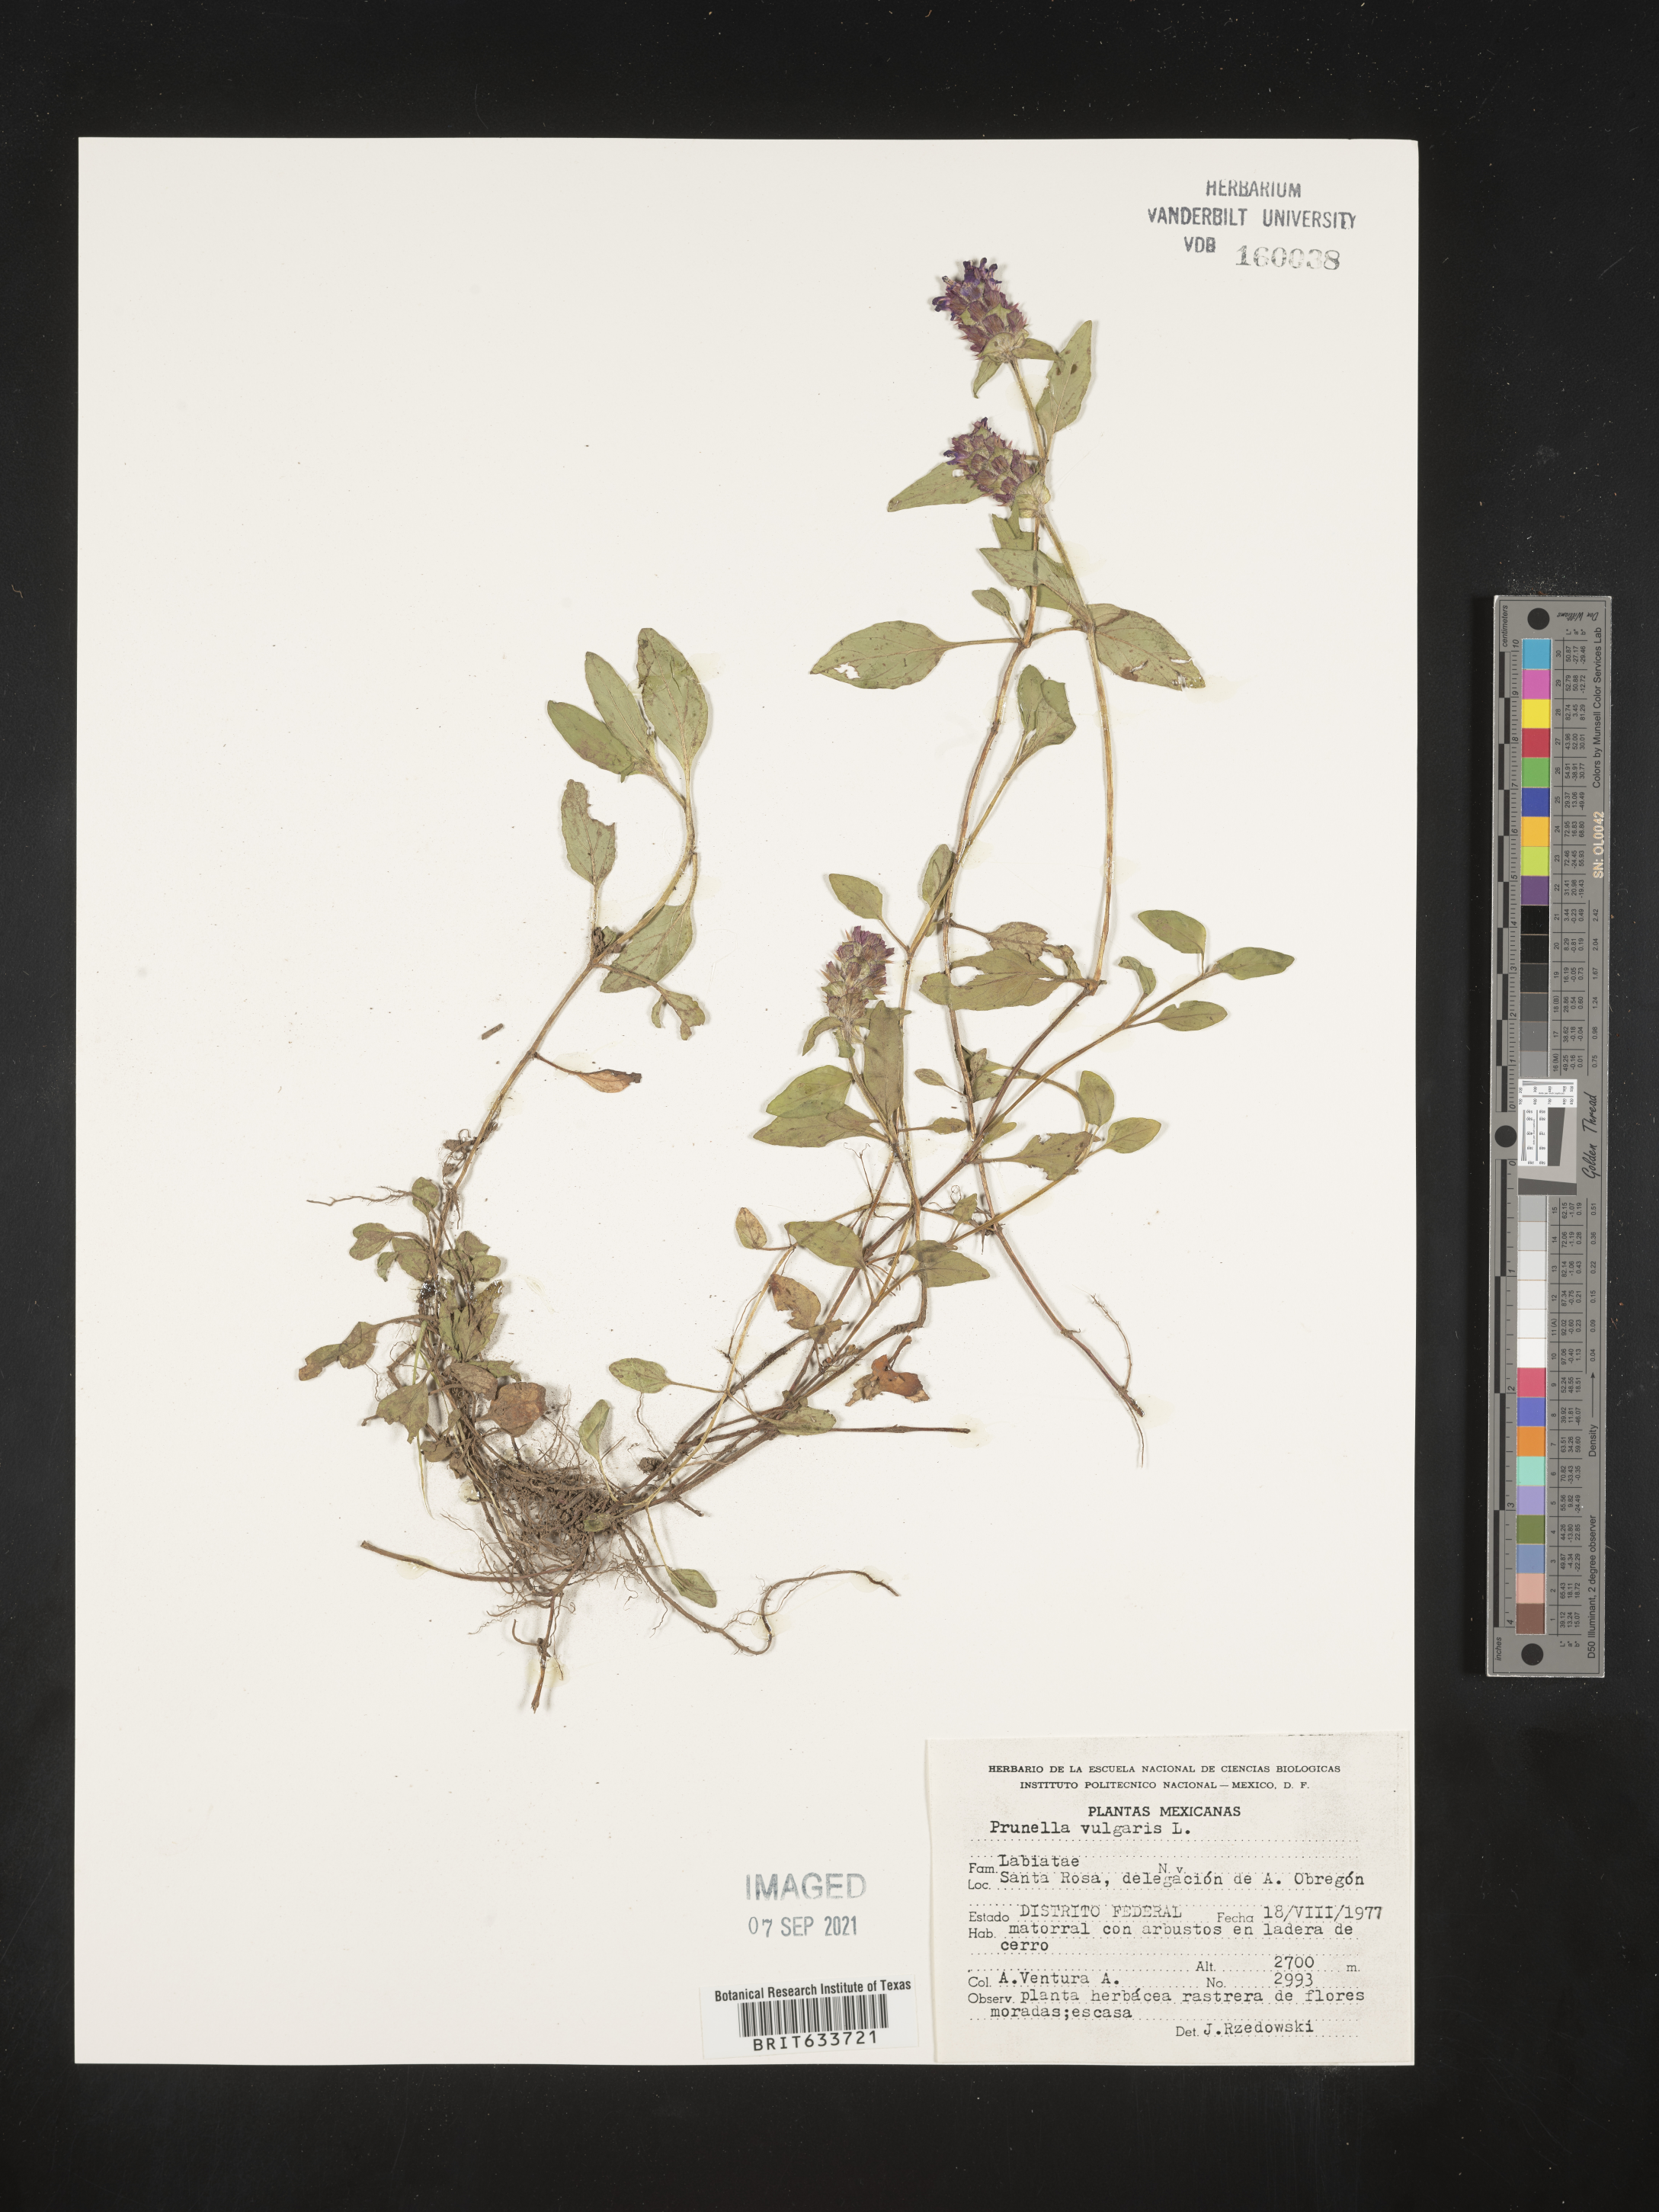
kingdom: Plantae
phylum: Tracheophyta
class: Magnoliopsida
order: Lamiales
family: Lamiaceae
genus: Prunella
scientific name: Prunella
